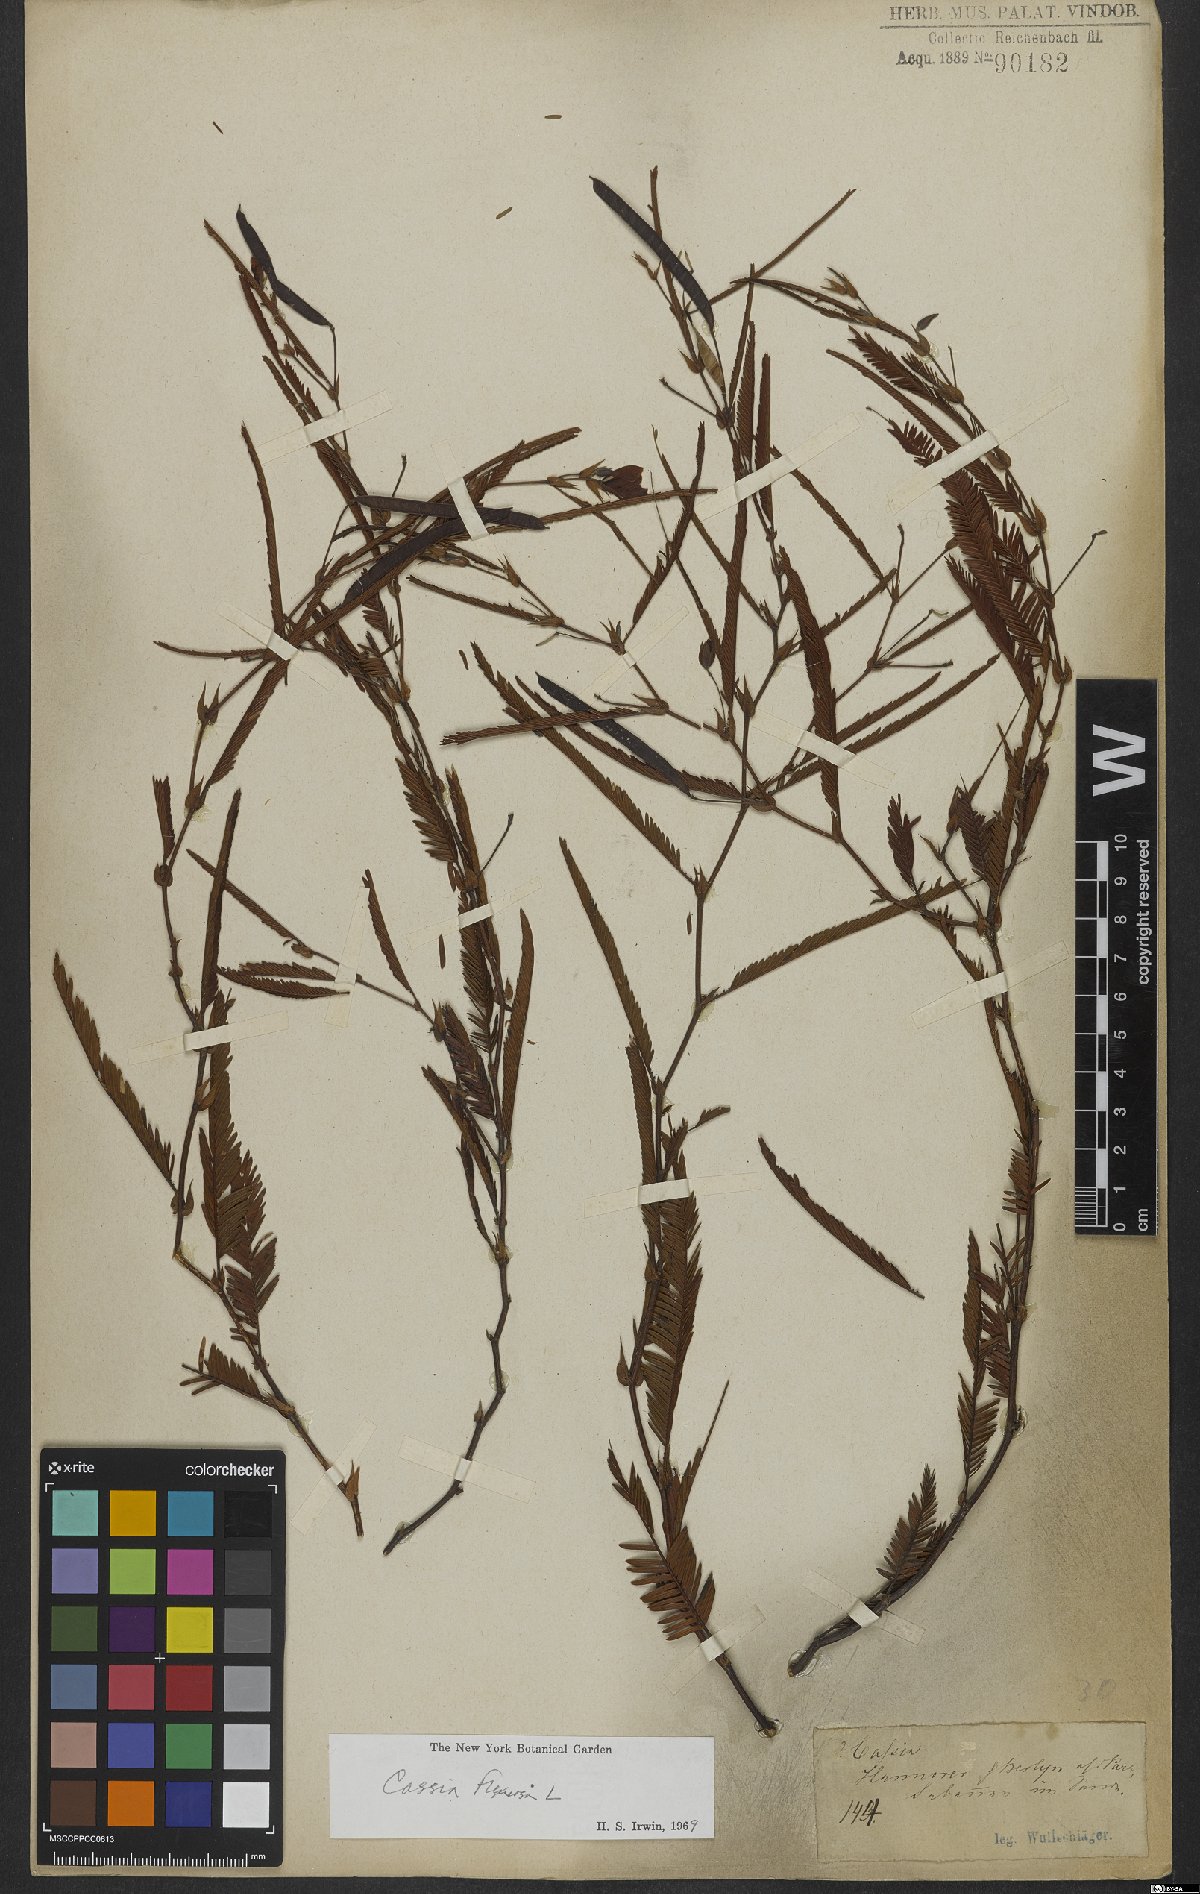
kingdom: Plantae
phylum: Tracheophyta
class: Magnoliopsida
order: Fabales
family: Fabaceae
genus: Chamaecrista
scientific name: Chamaecrista flexuosa
